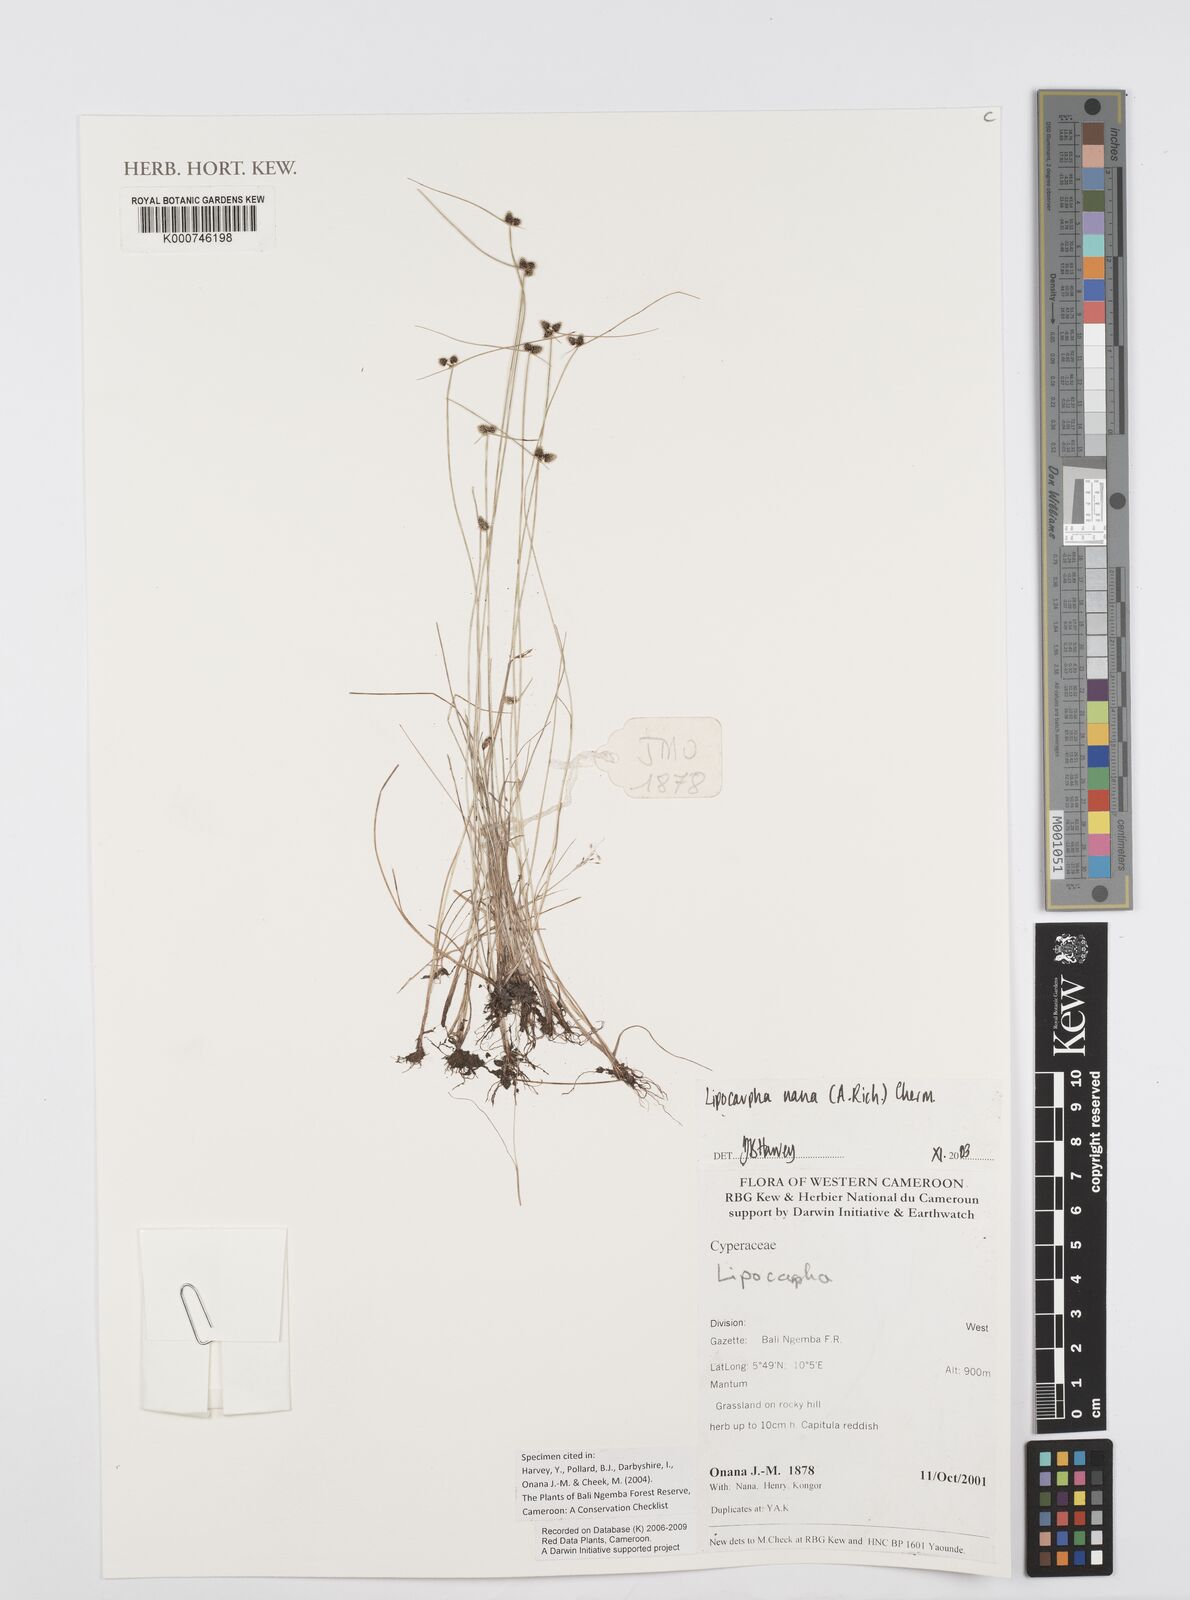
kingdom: Plantae
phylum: Tracheophyta
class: Liliopsida
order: Poales
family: Cyperaceae
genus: Cyperus
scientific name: Cyperus persquarrosus
